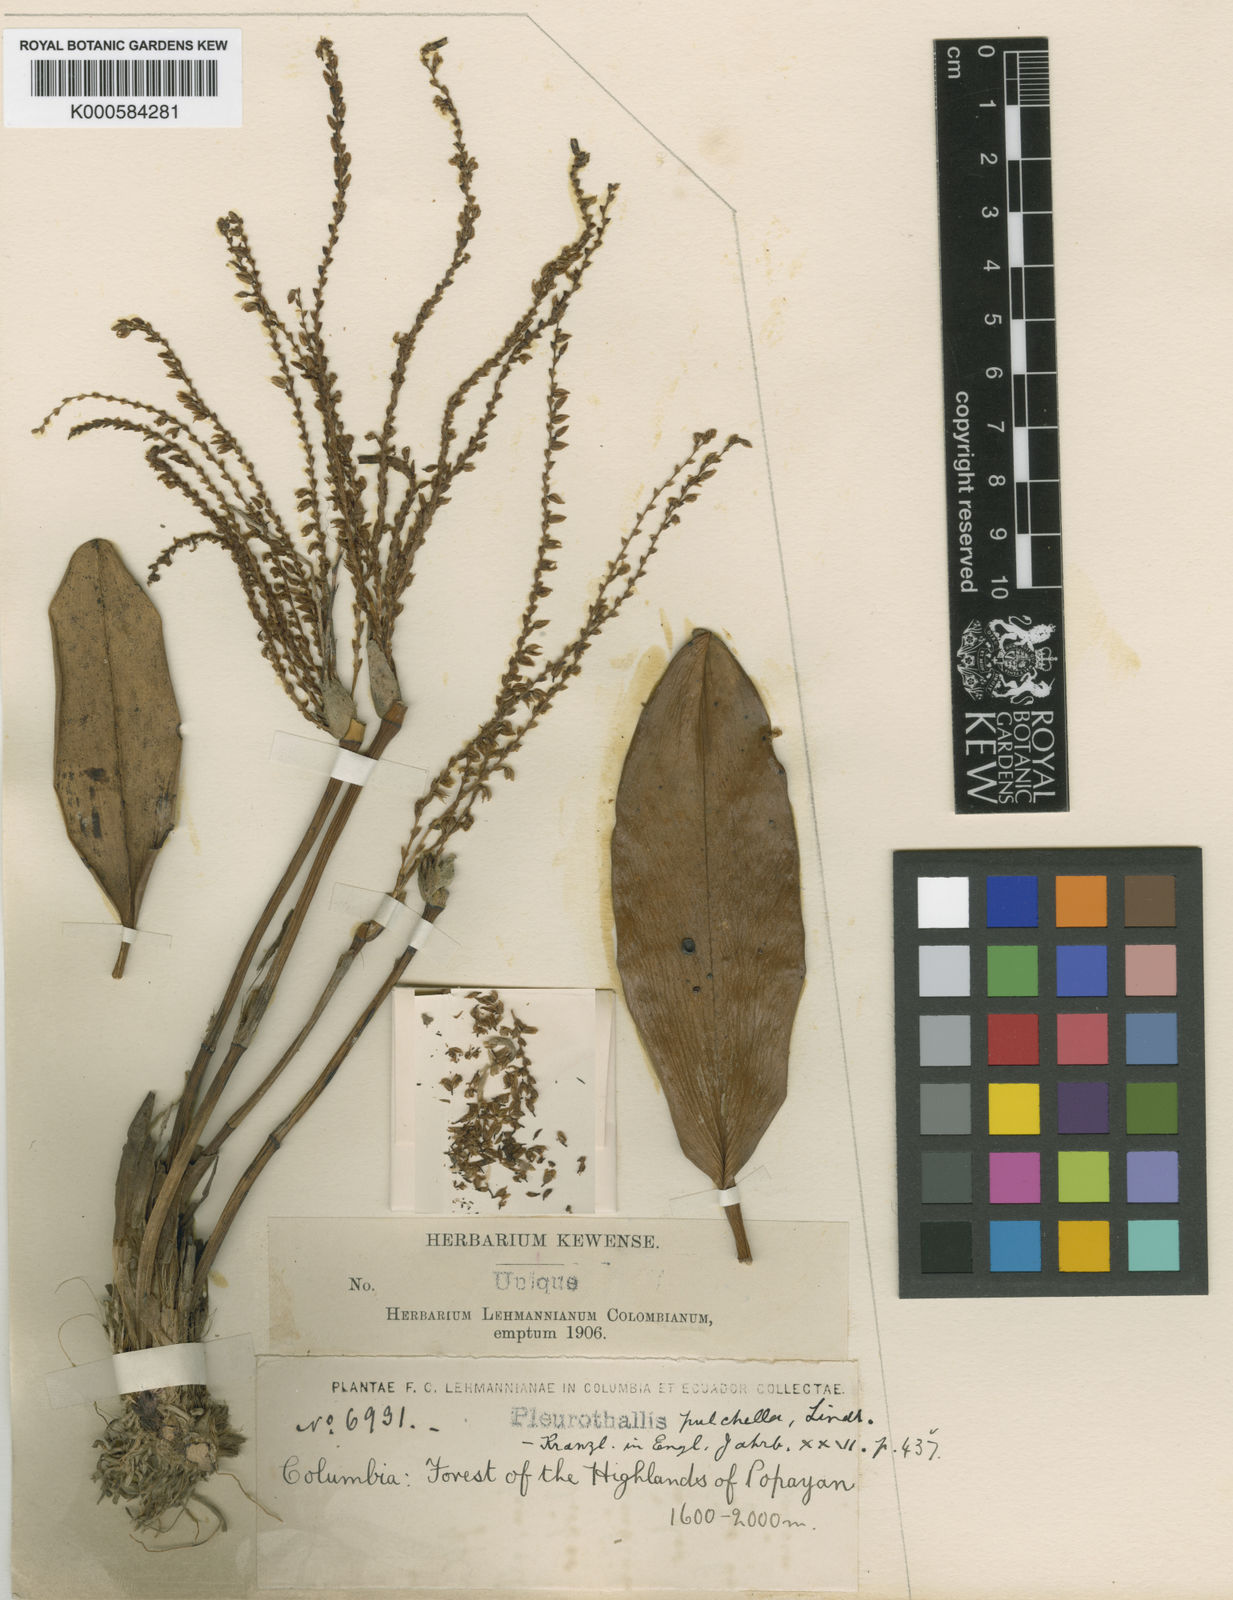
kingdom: Plantae
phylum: Tracheophyta
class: Liliopsida
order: Asparagales
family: Orchidaceae
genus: Acianthera
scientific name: Acianthera erinacea
